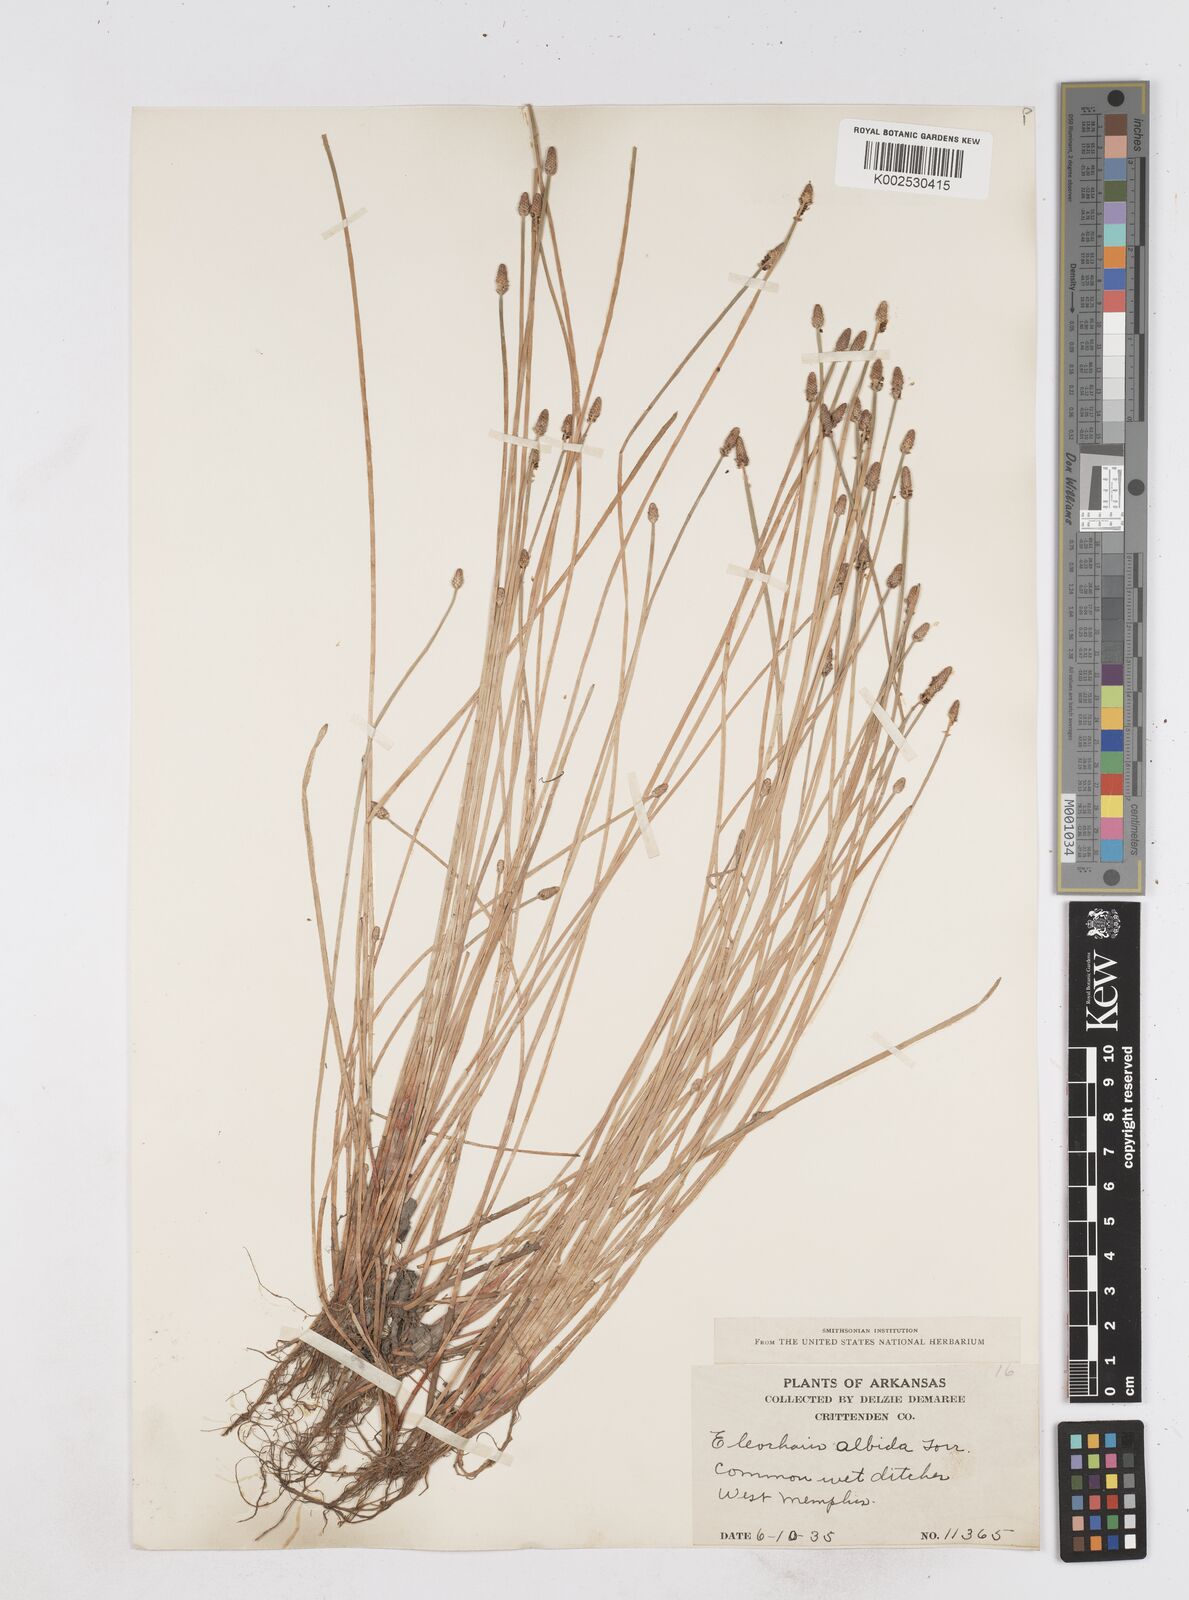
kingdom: Plantae
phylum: Tracheophyta
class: Liliopsida
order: Poales
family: Cyperaceae
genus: Eleocharis
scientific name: Eleocharis albida
